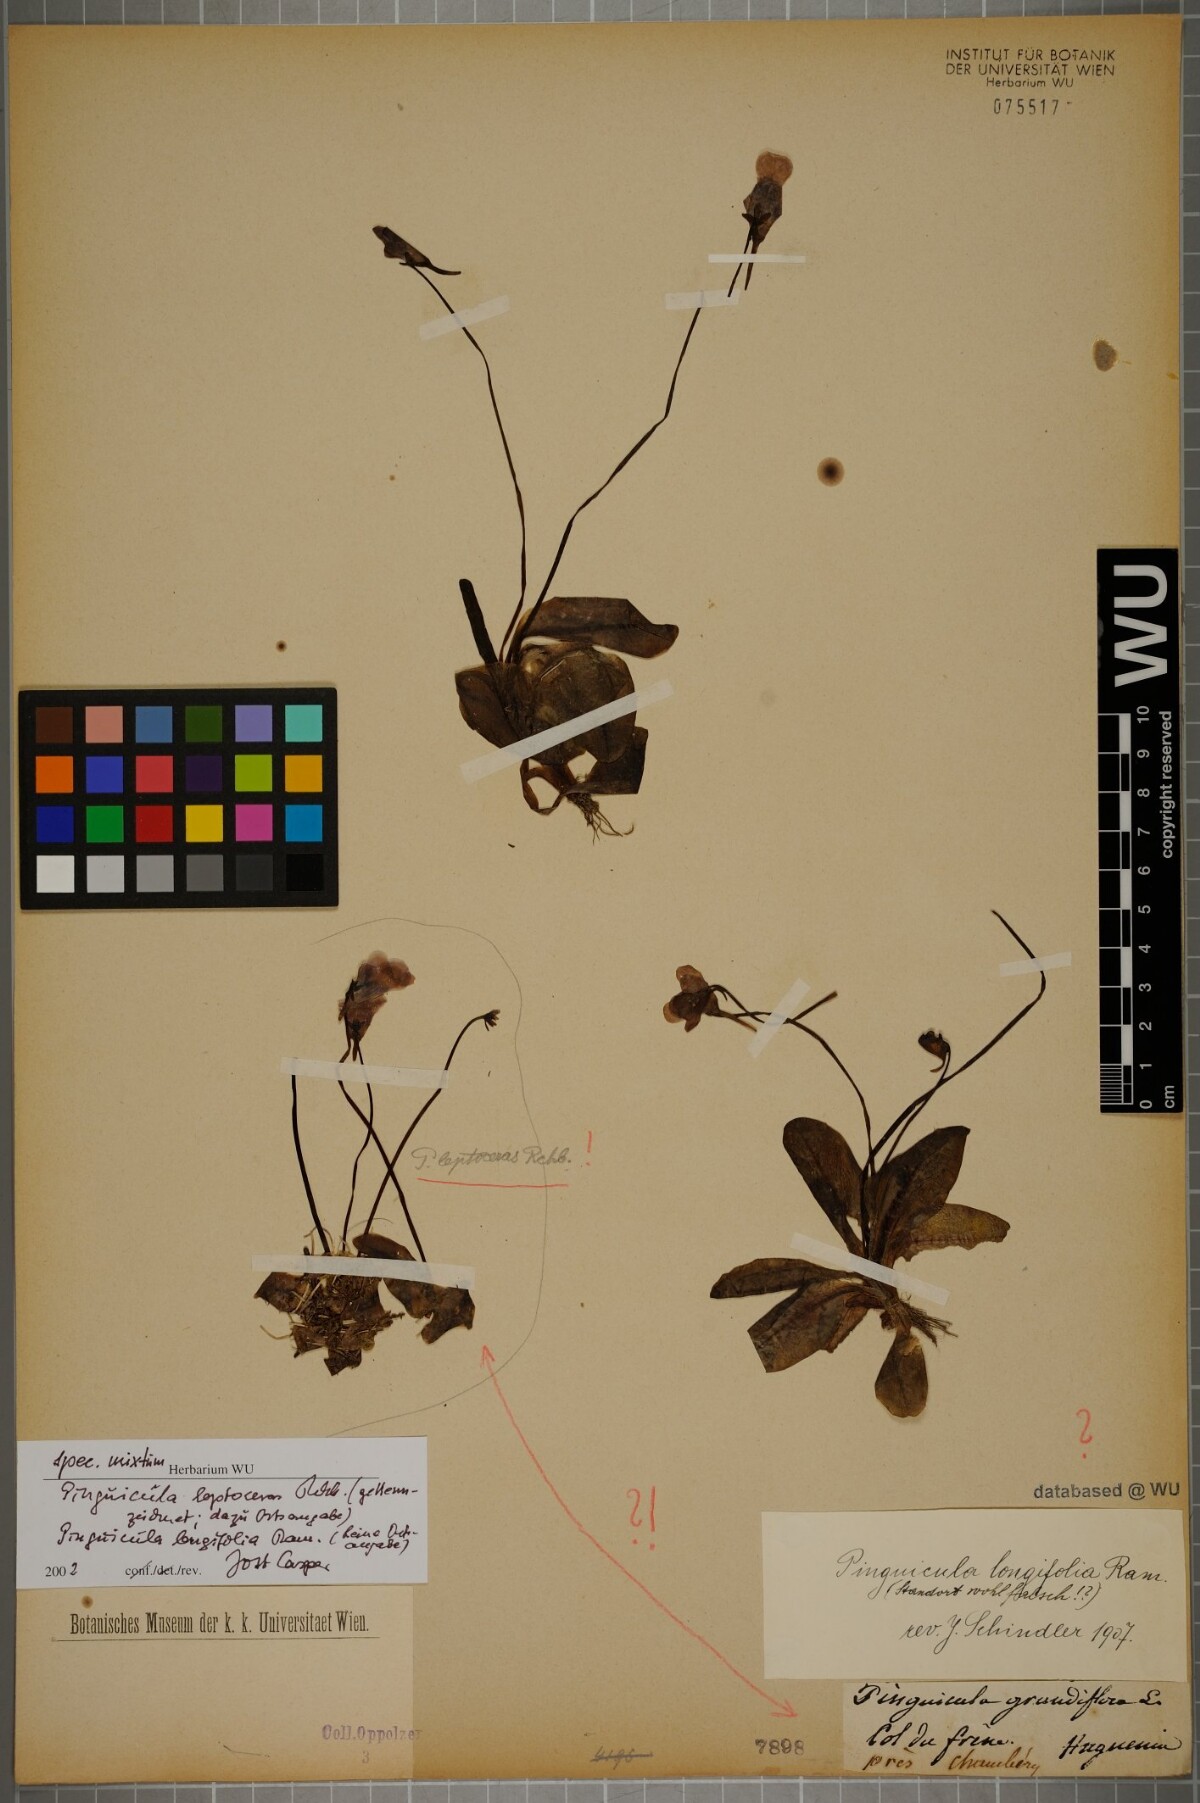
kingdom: Plantae
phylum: Tracheophyta
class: Magnoliopsida
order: Lamiales
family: Lentibulariaceae
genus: Pinguicula
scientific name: Pinguicula leptoceras
